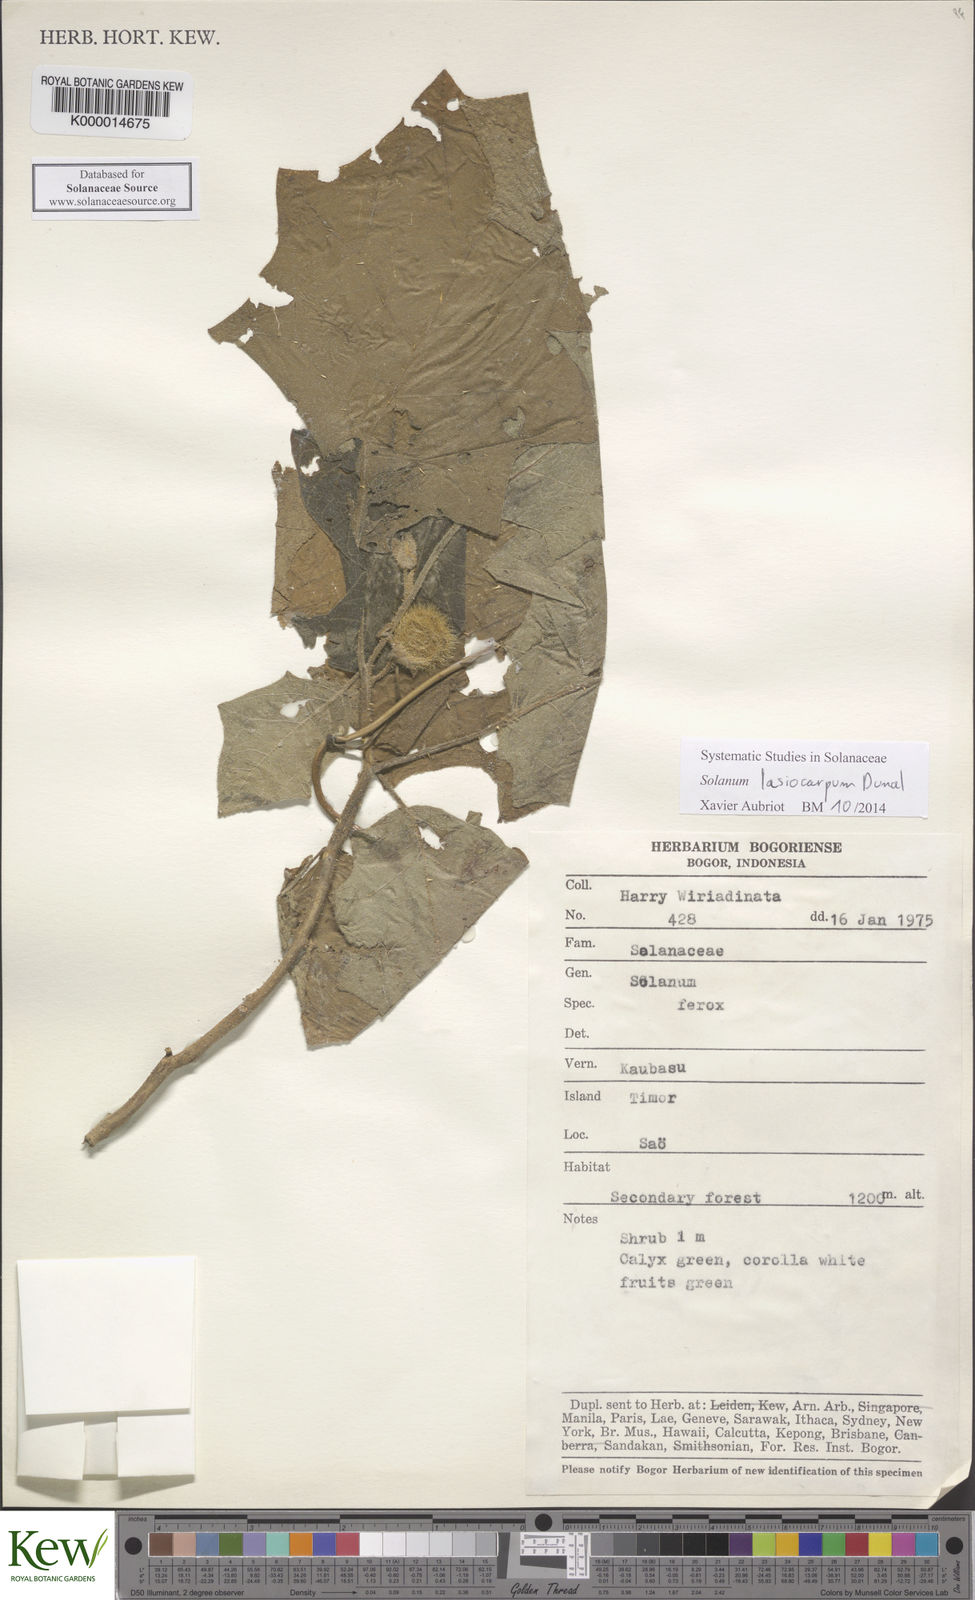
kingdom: Plantae
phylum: Tracheophyta
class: Magnoliopsida
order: Solanales
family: Solanaceae
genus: Solanum
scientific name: Solanum lasiocarpum
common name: Indian nightshade
